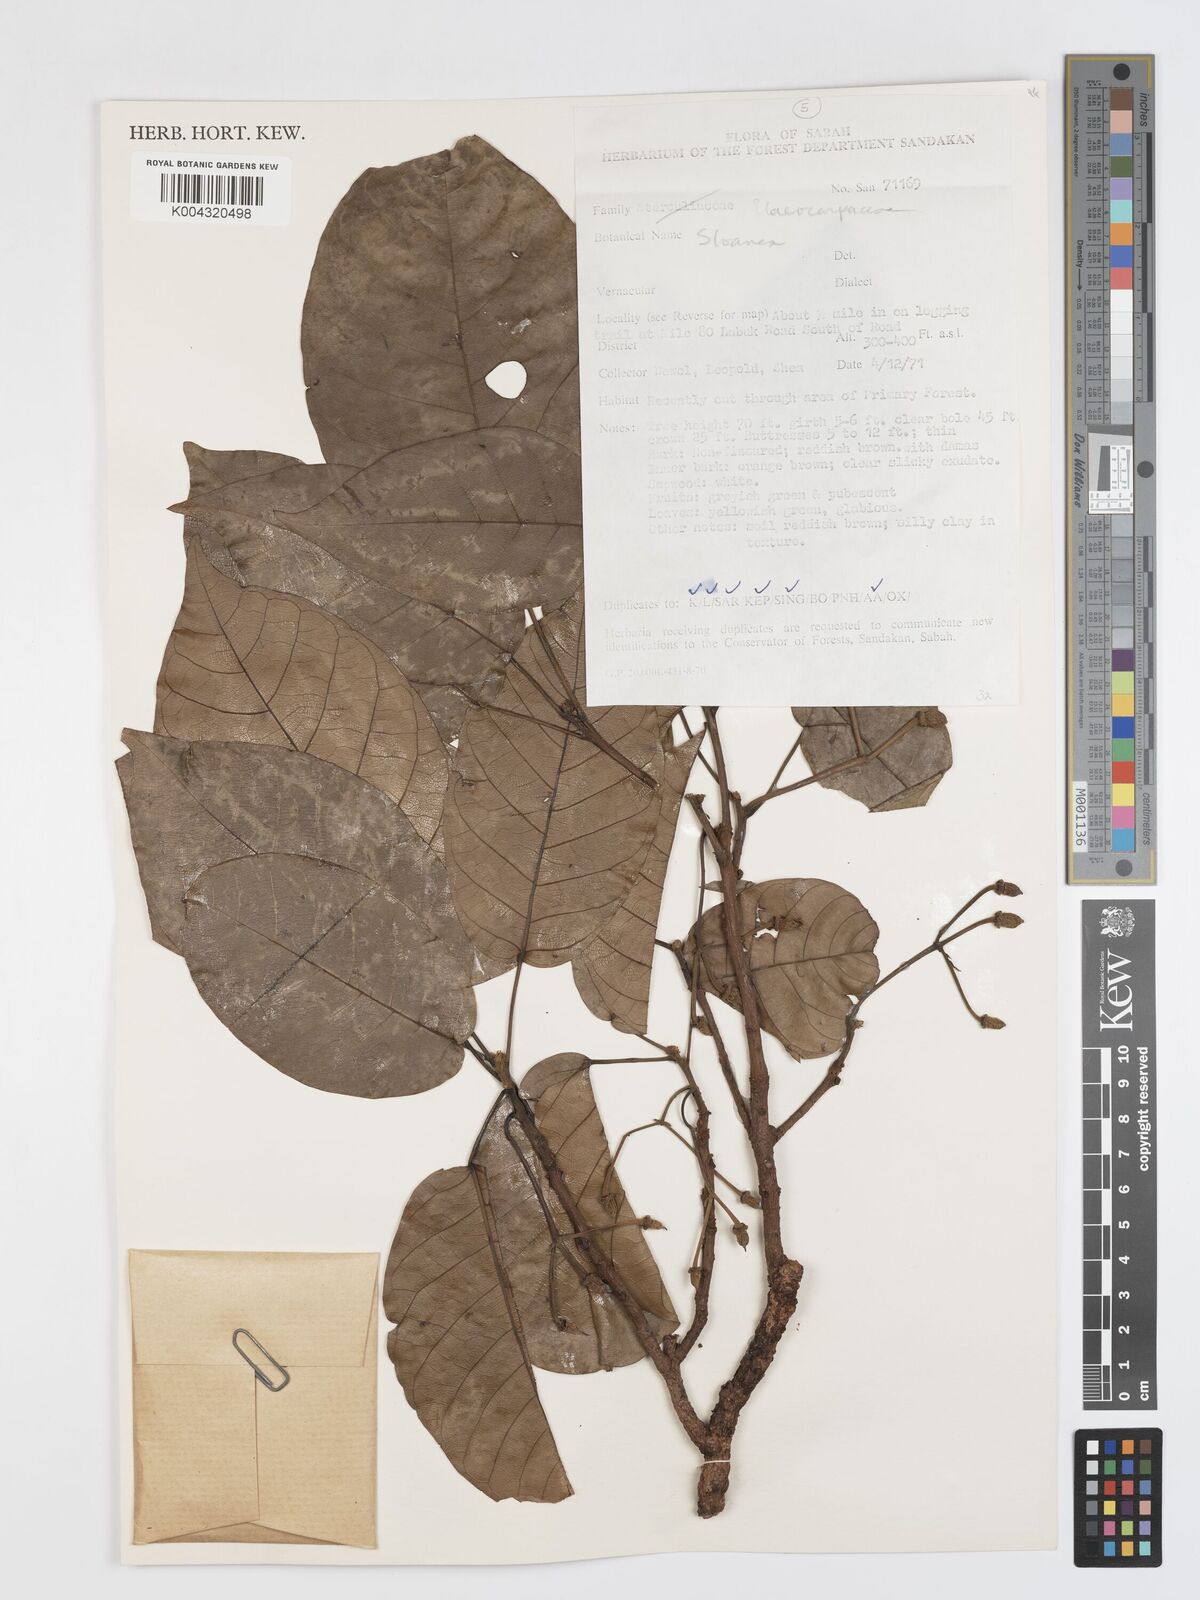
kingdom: Plantae
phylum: Tracheophyta
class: Magnoliopsida
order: Oxalidales
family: Elaeocarpaceae
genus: Sloanea
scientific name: Sloanea javanica
